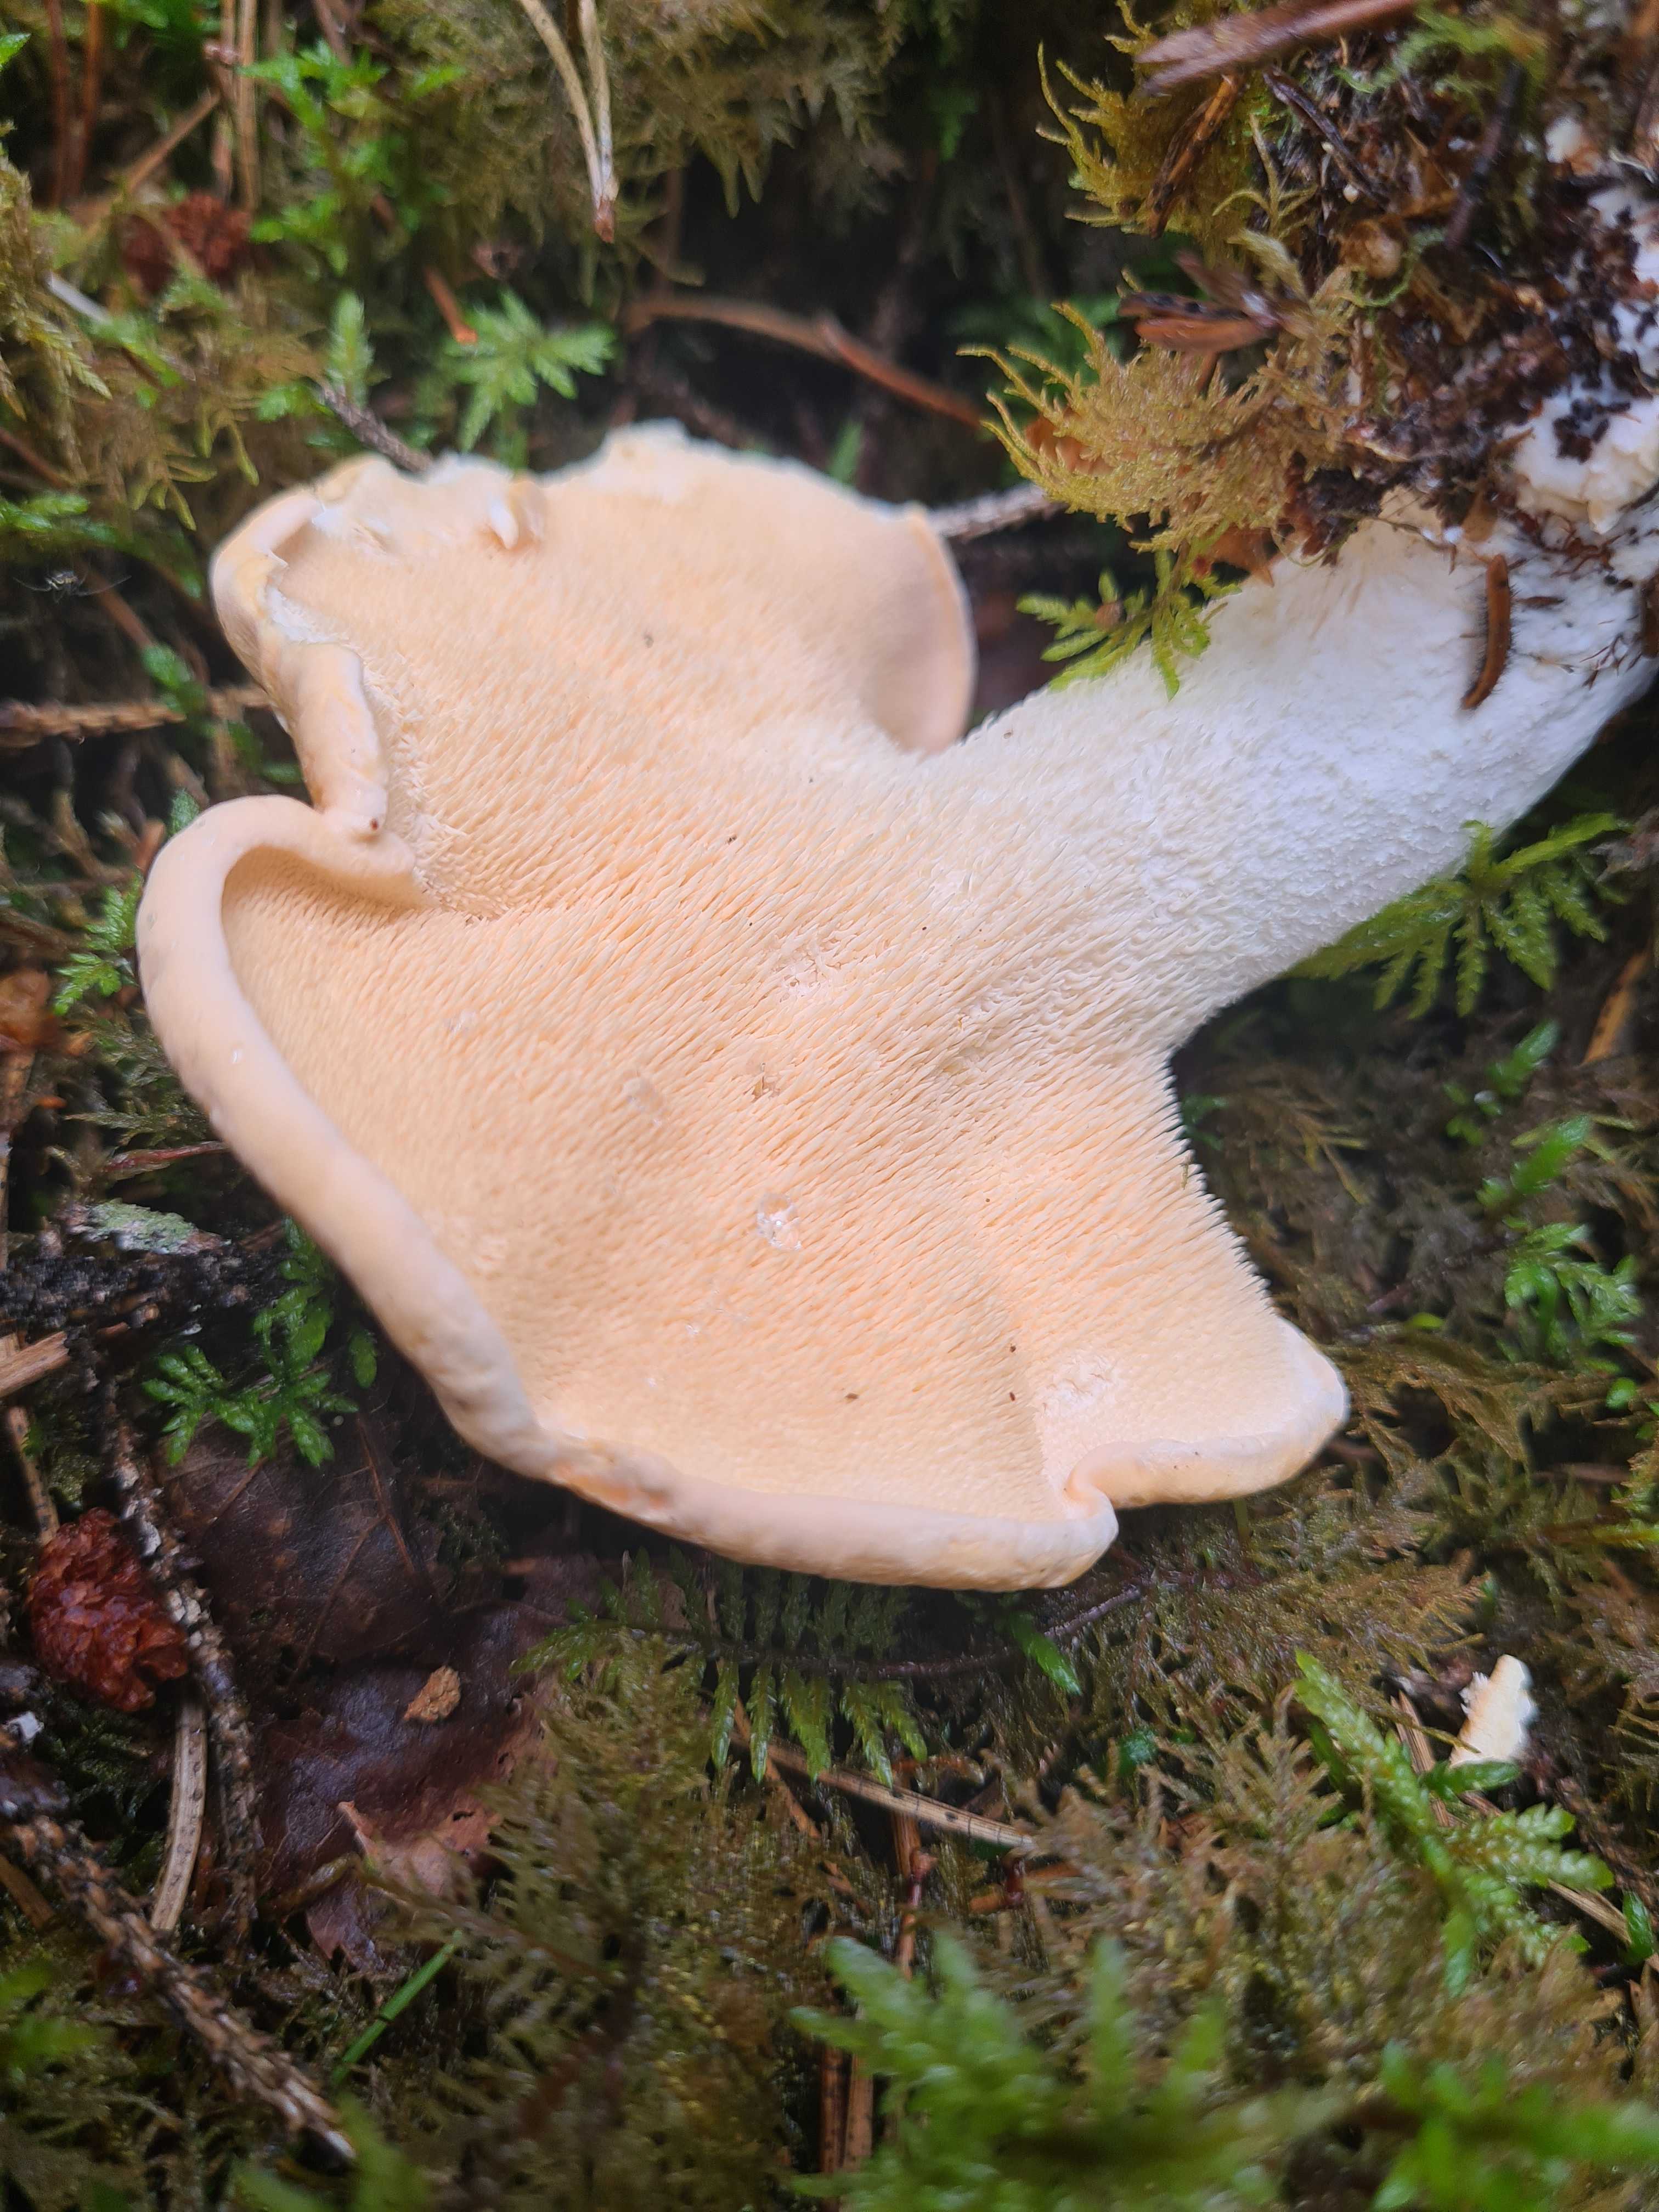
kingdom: Fungi
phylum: Basidiomycota
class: Agaricomycetes
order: Cantharellales
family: Hydnaceae
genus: Hydnum
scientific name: Hydnum rufescens
